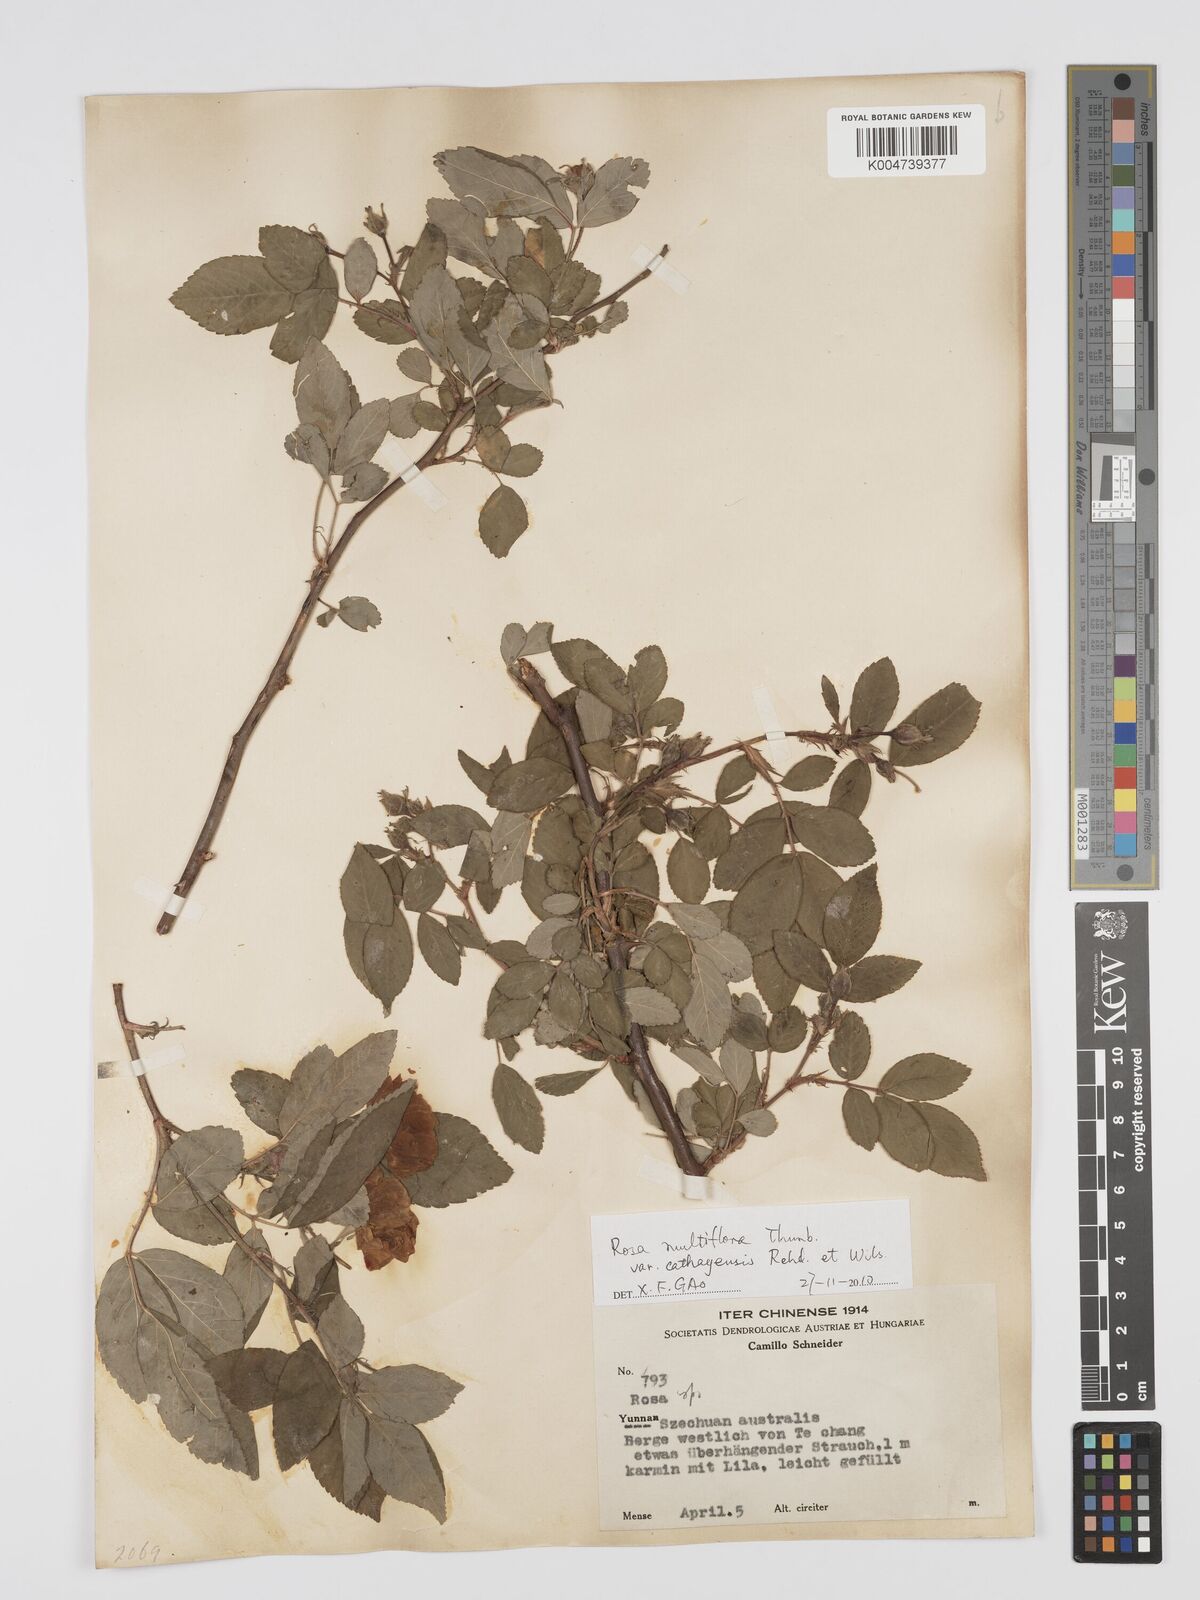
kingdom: Plantae
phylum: Tracheophyta
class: Magnoliopsida
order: Rosales
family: Rosaceae
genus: Rosa
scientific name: Rosa multiflora
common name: Multiflora rose
